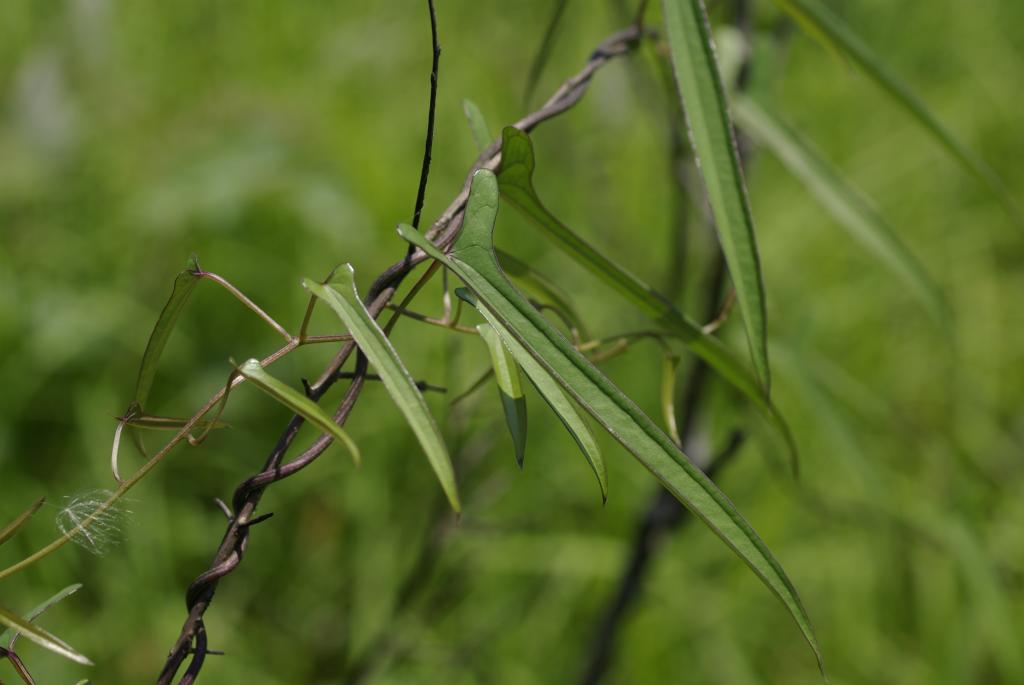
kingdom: Plantae
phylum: Tracheophyta
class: Liliopsida
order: Dioscoreales
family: Dioscoreaceae
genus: Dioscorea
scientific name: Dioscorea japonica
